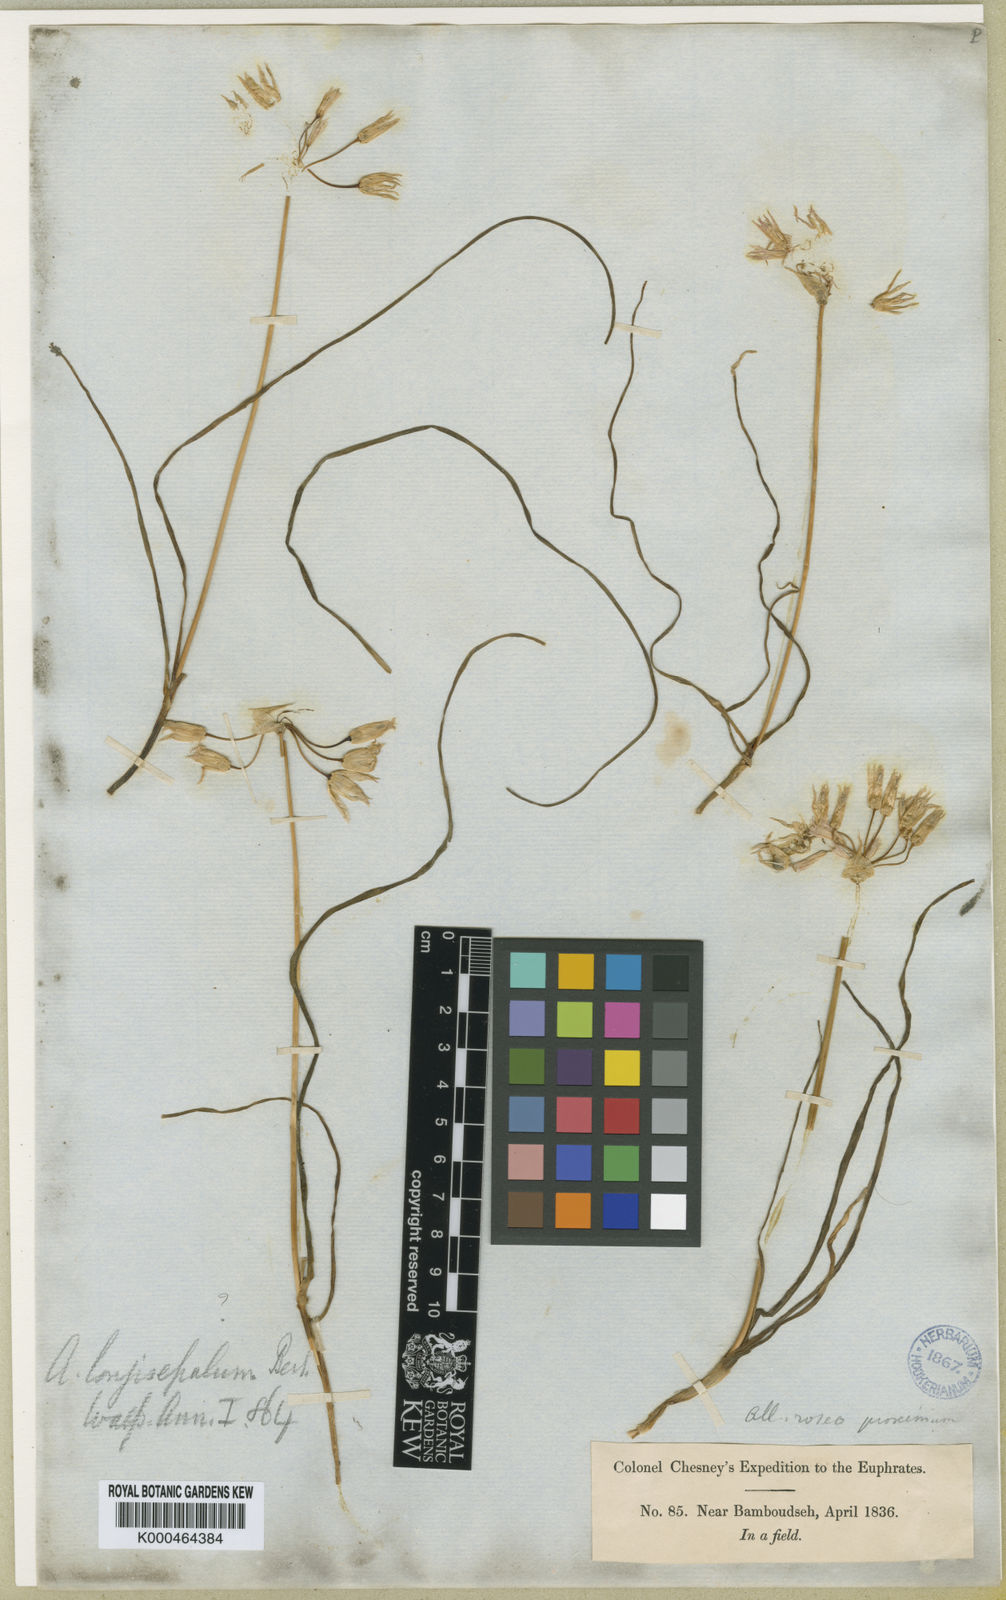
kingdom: Plantae
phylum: Tracheophyta
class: Liliopsida
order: Asparagales
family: Amaryllidaceae
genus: Allium
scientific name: Allium longisepalum
